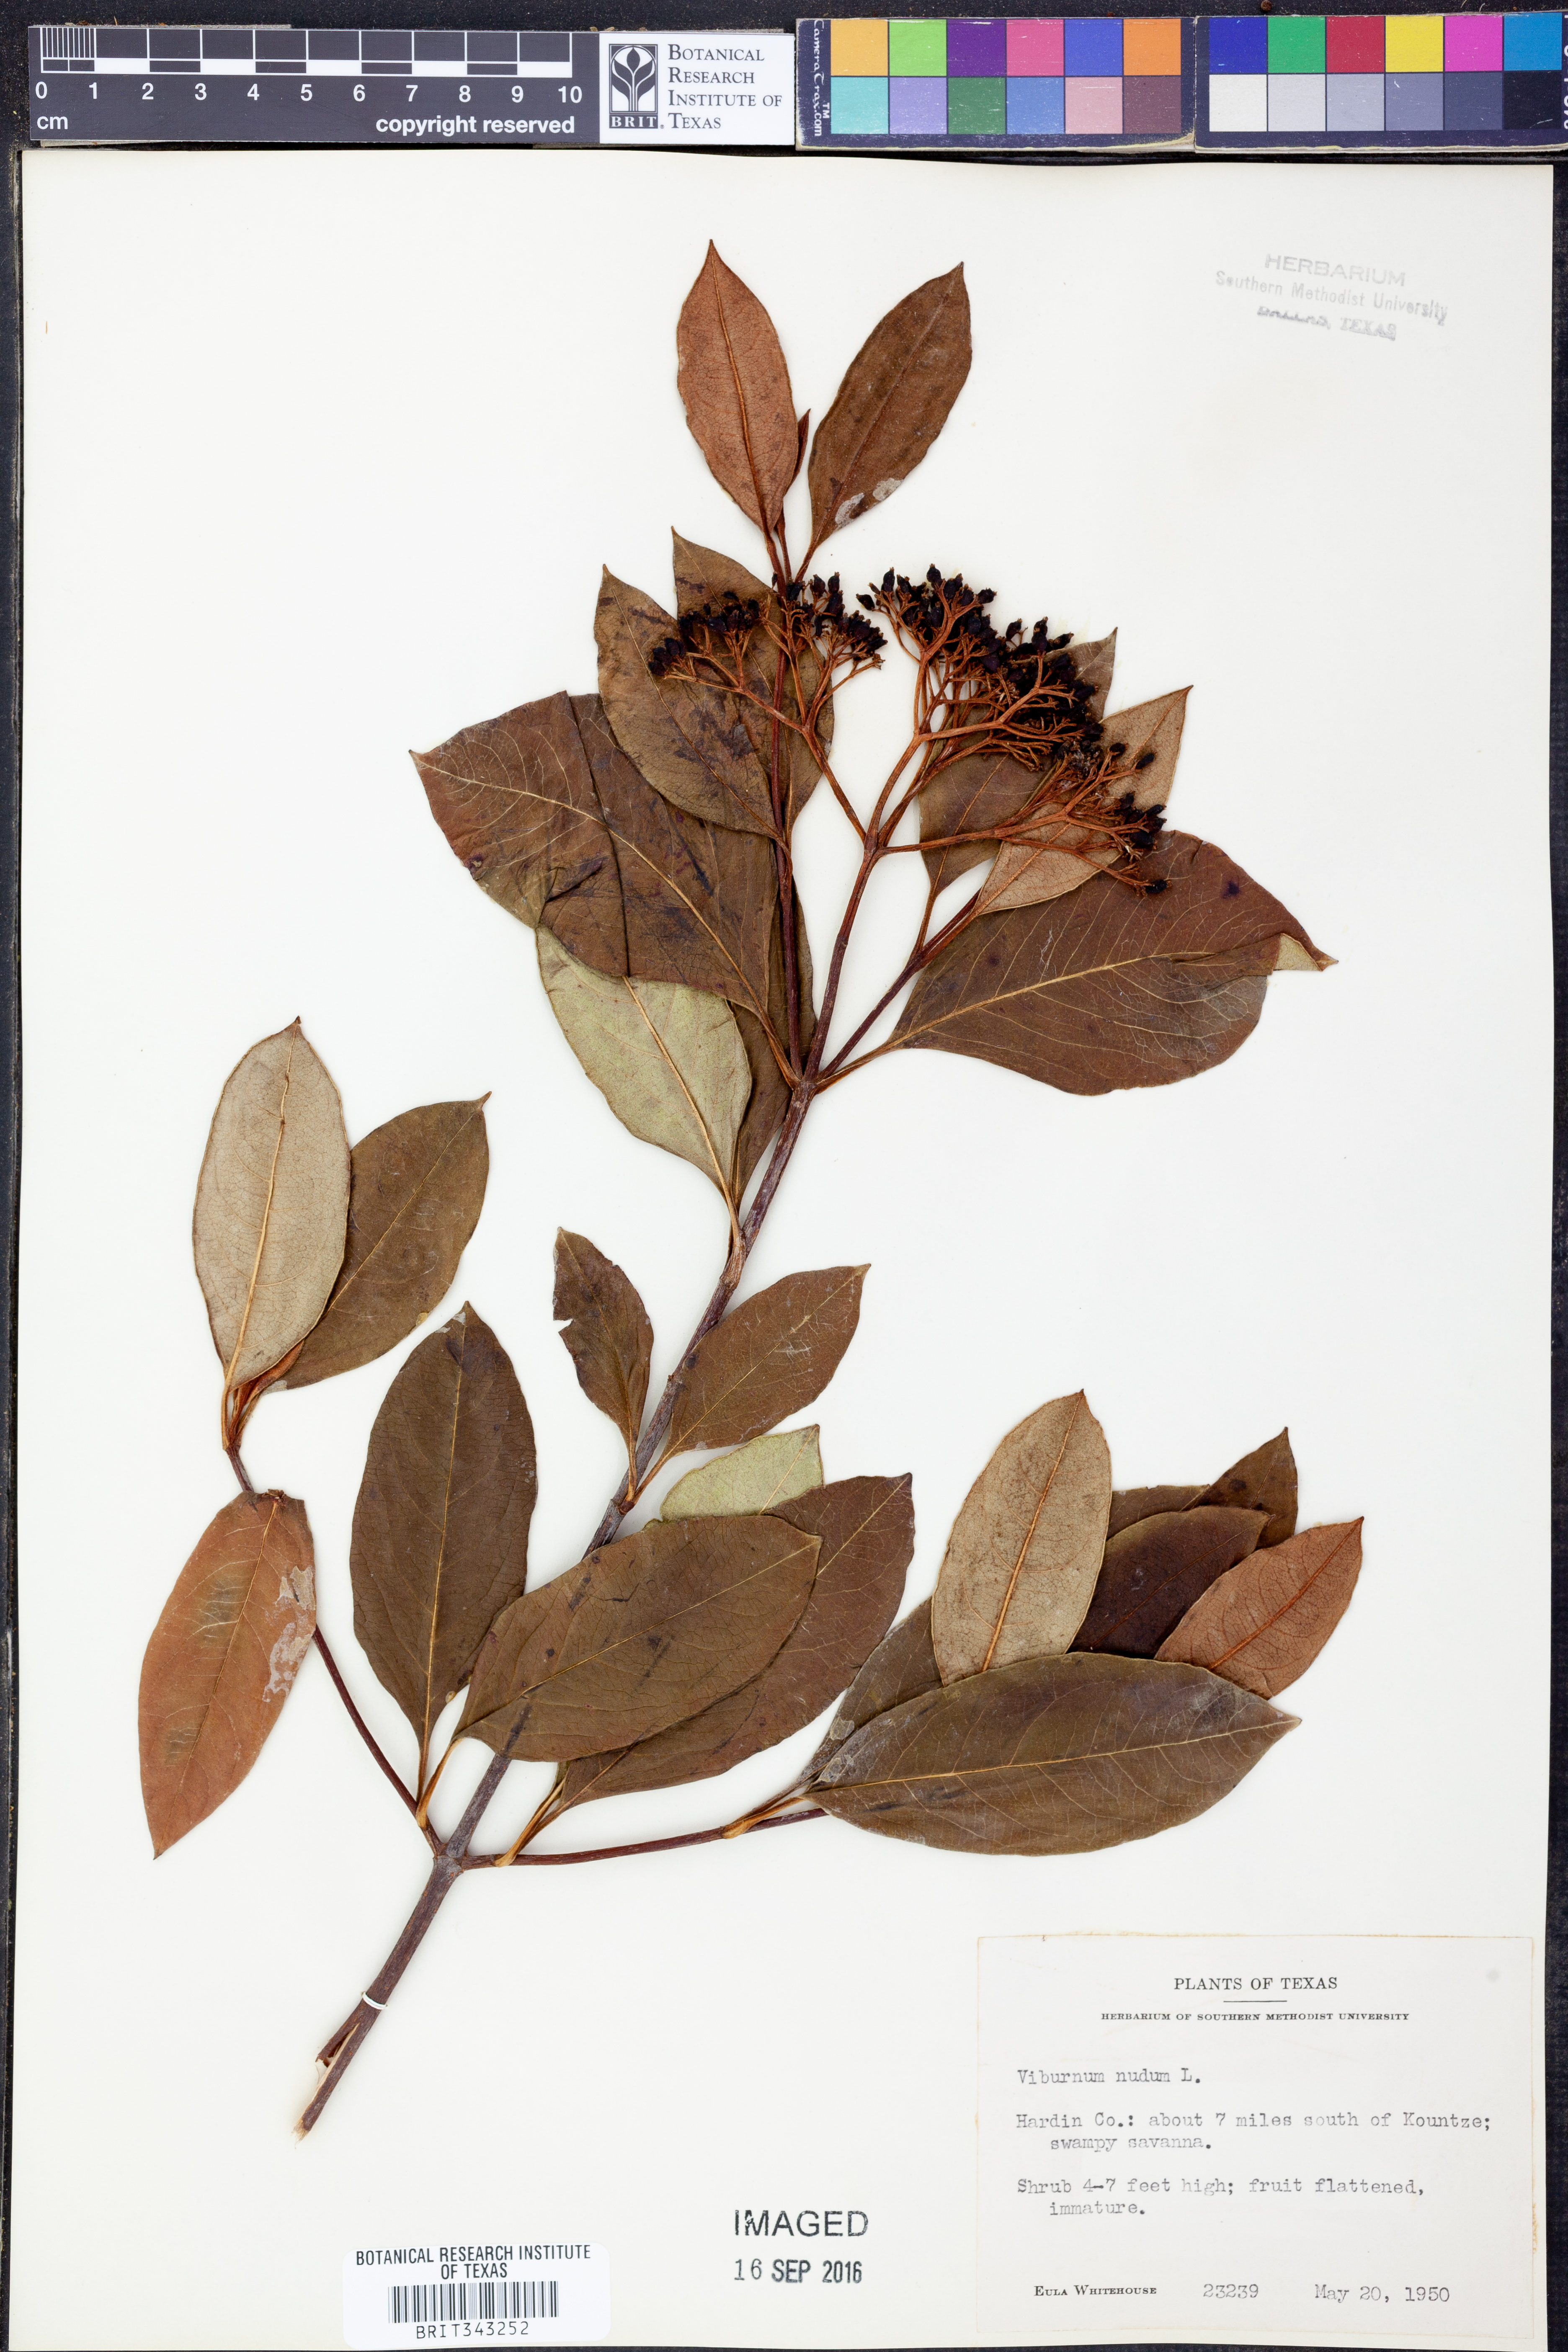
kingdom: Plantae
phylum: Tracheophyta
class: Magnoliopsida
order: Dipsacales
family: Viburnaceae
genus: Viburnum
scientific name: Viburnum nudum
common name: Possum haw
